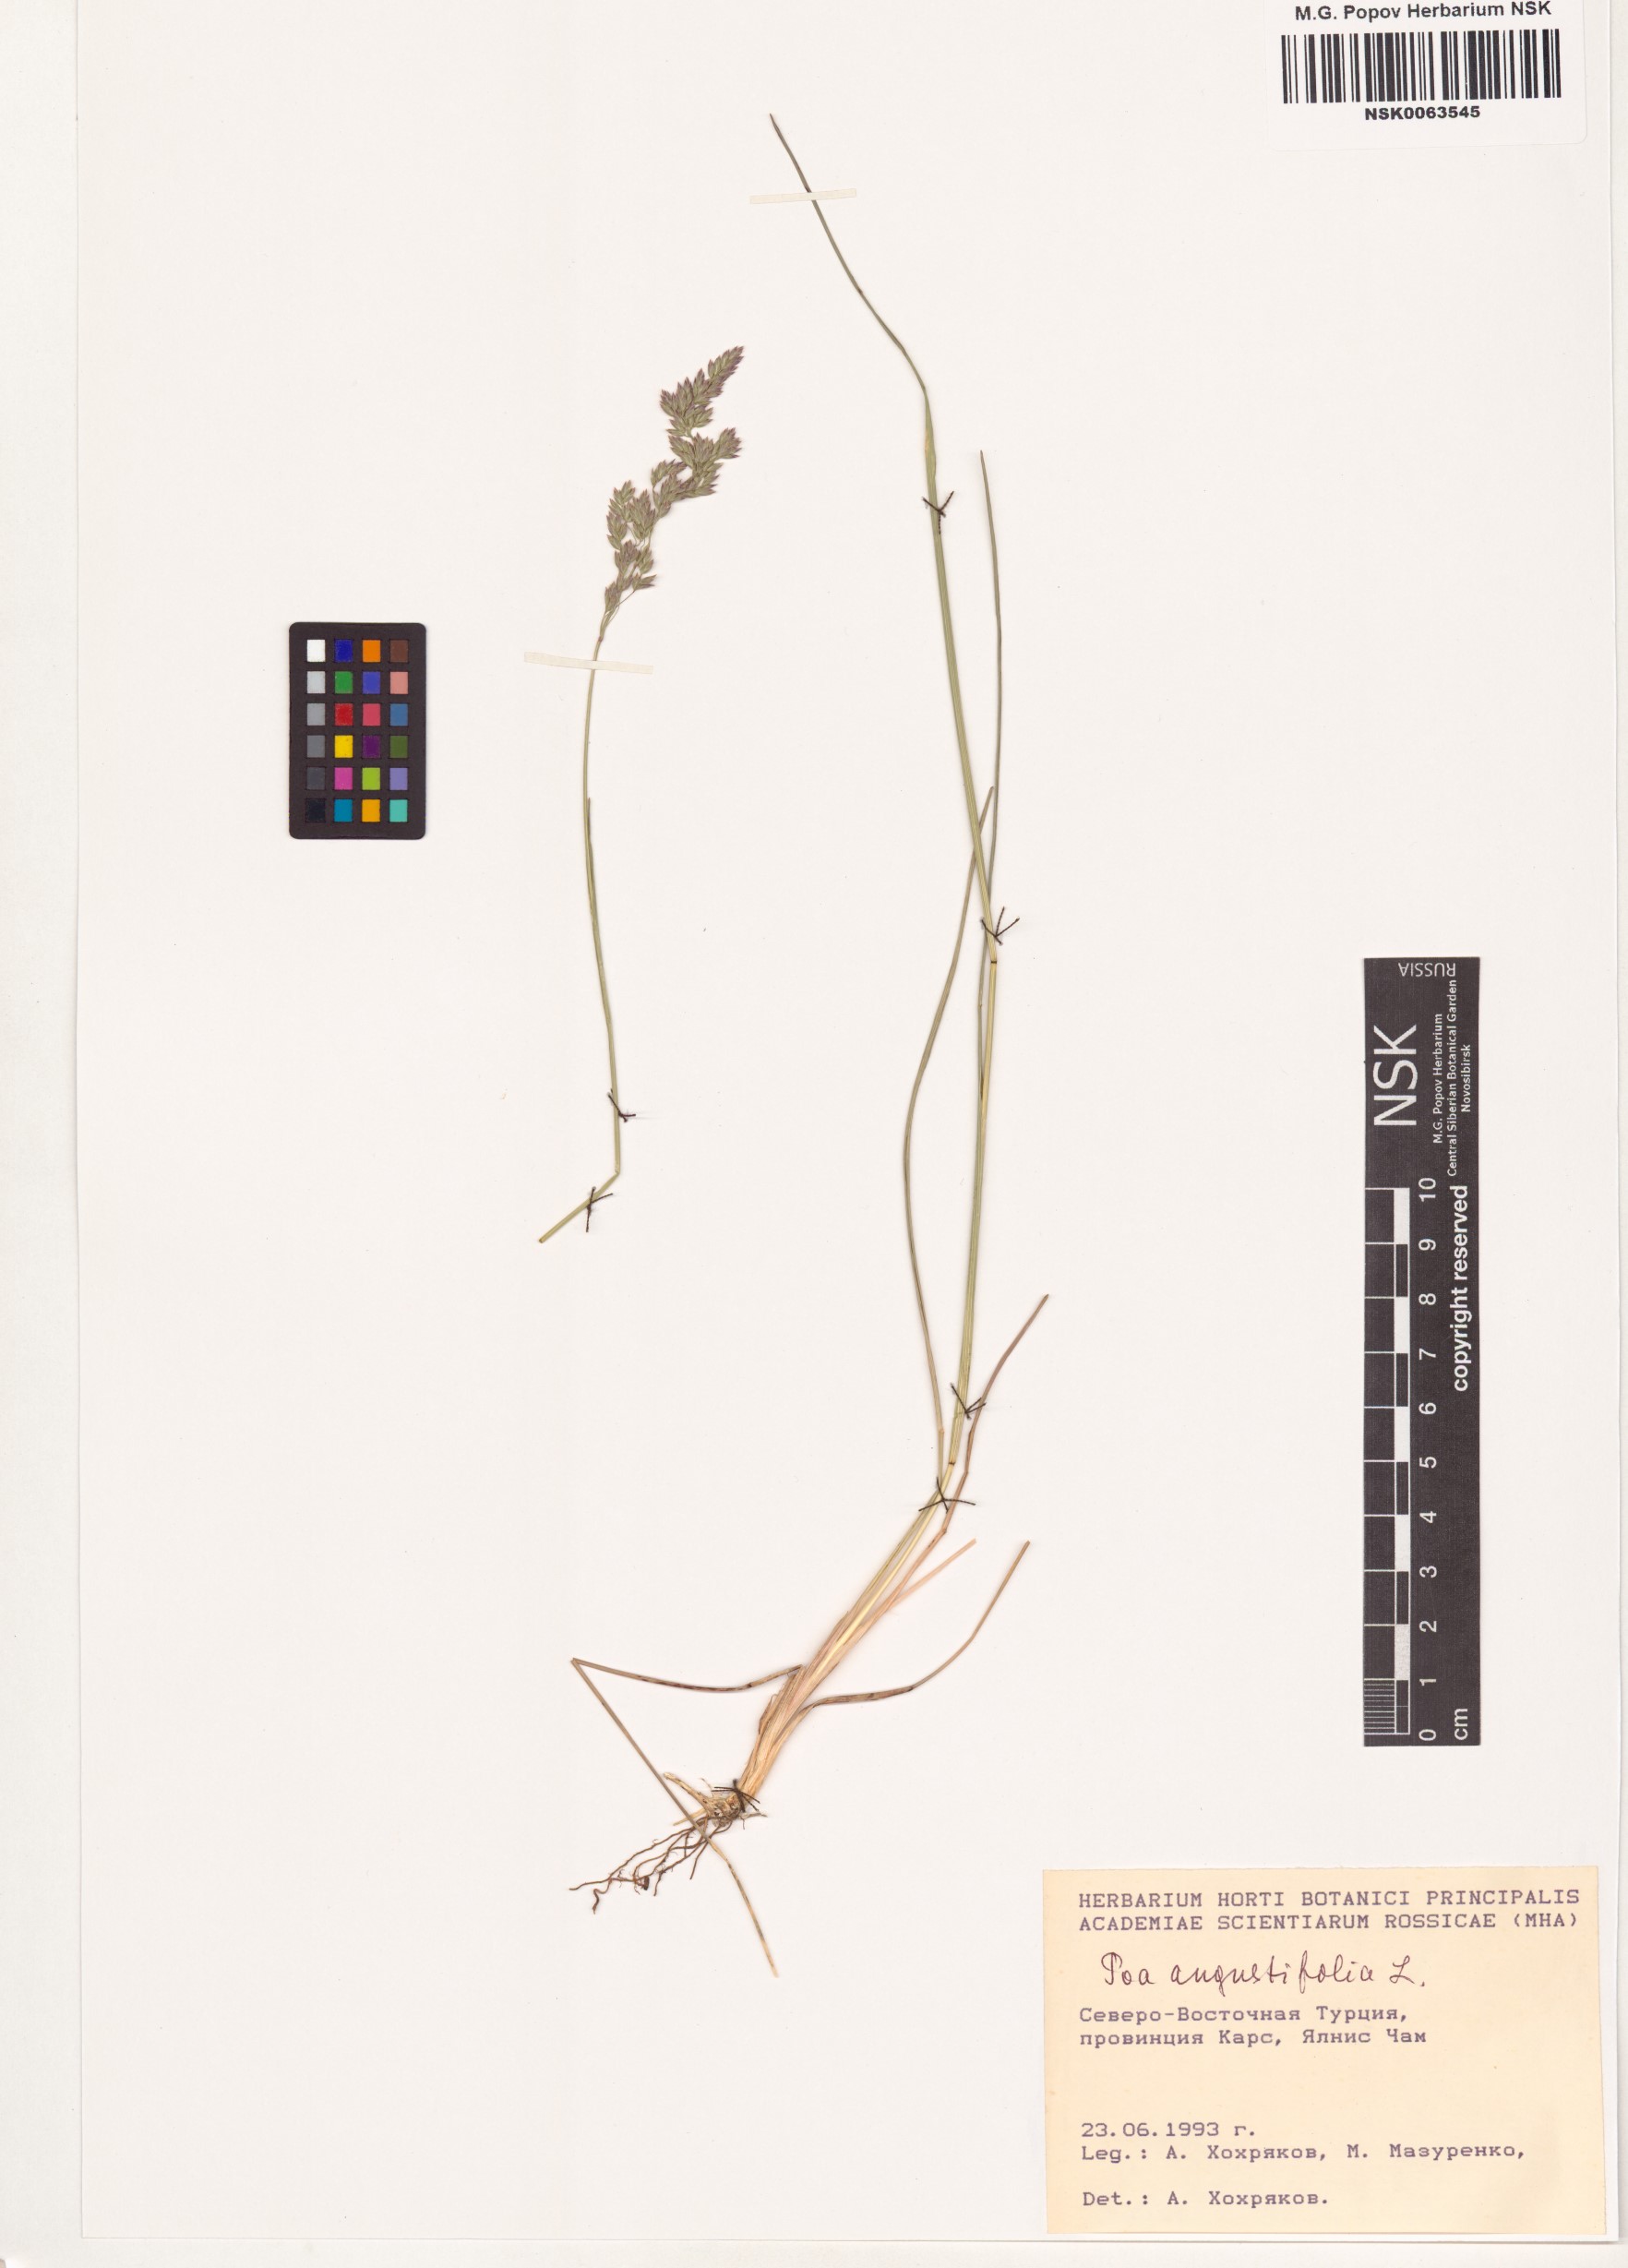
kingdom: Plantae
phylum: Tracheophyta
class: Liliopsida
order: Poales
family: Poaceae
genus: Poa
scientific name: Poa angustifolia
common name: Narrow-leaved meadow-grass
